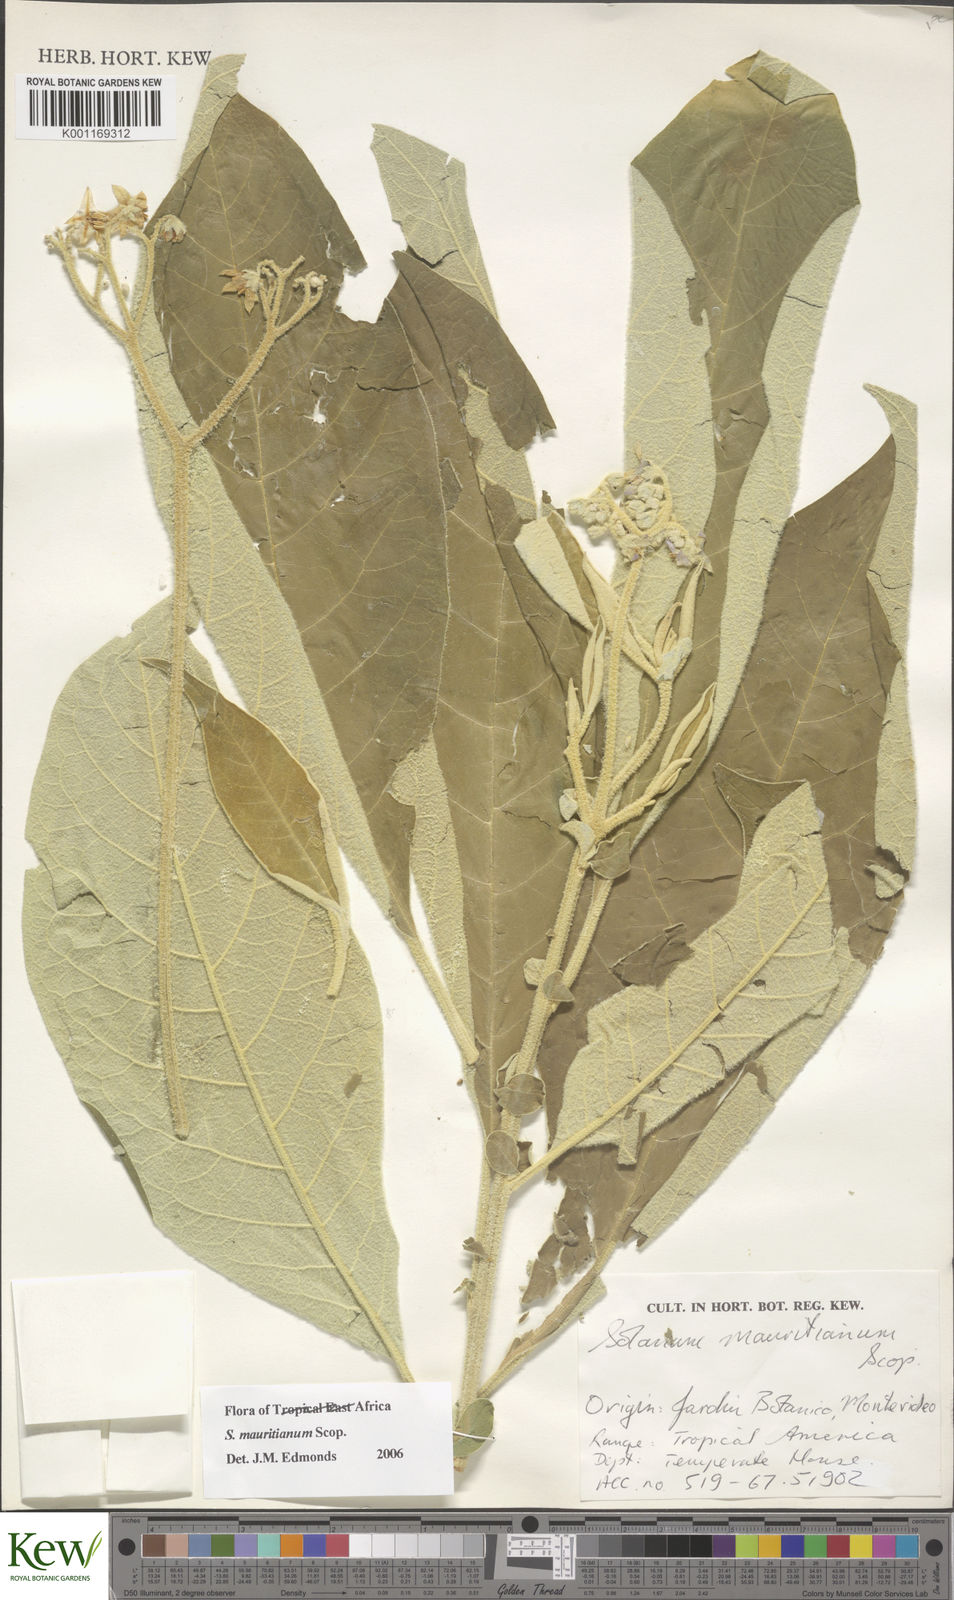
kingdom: Plantae
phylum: Tracheophyta
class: Magnoliopsida
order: Solanales
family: Solanaceae
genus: Solanum
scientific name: Solanum mauritianum
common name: Earleaf nightshade
